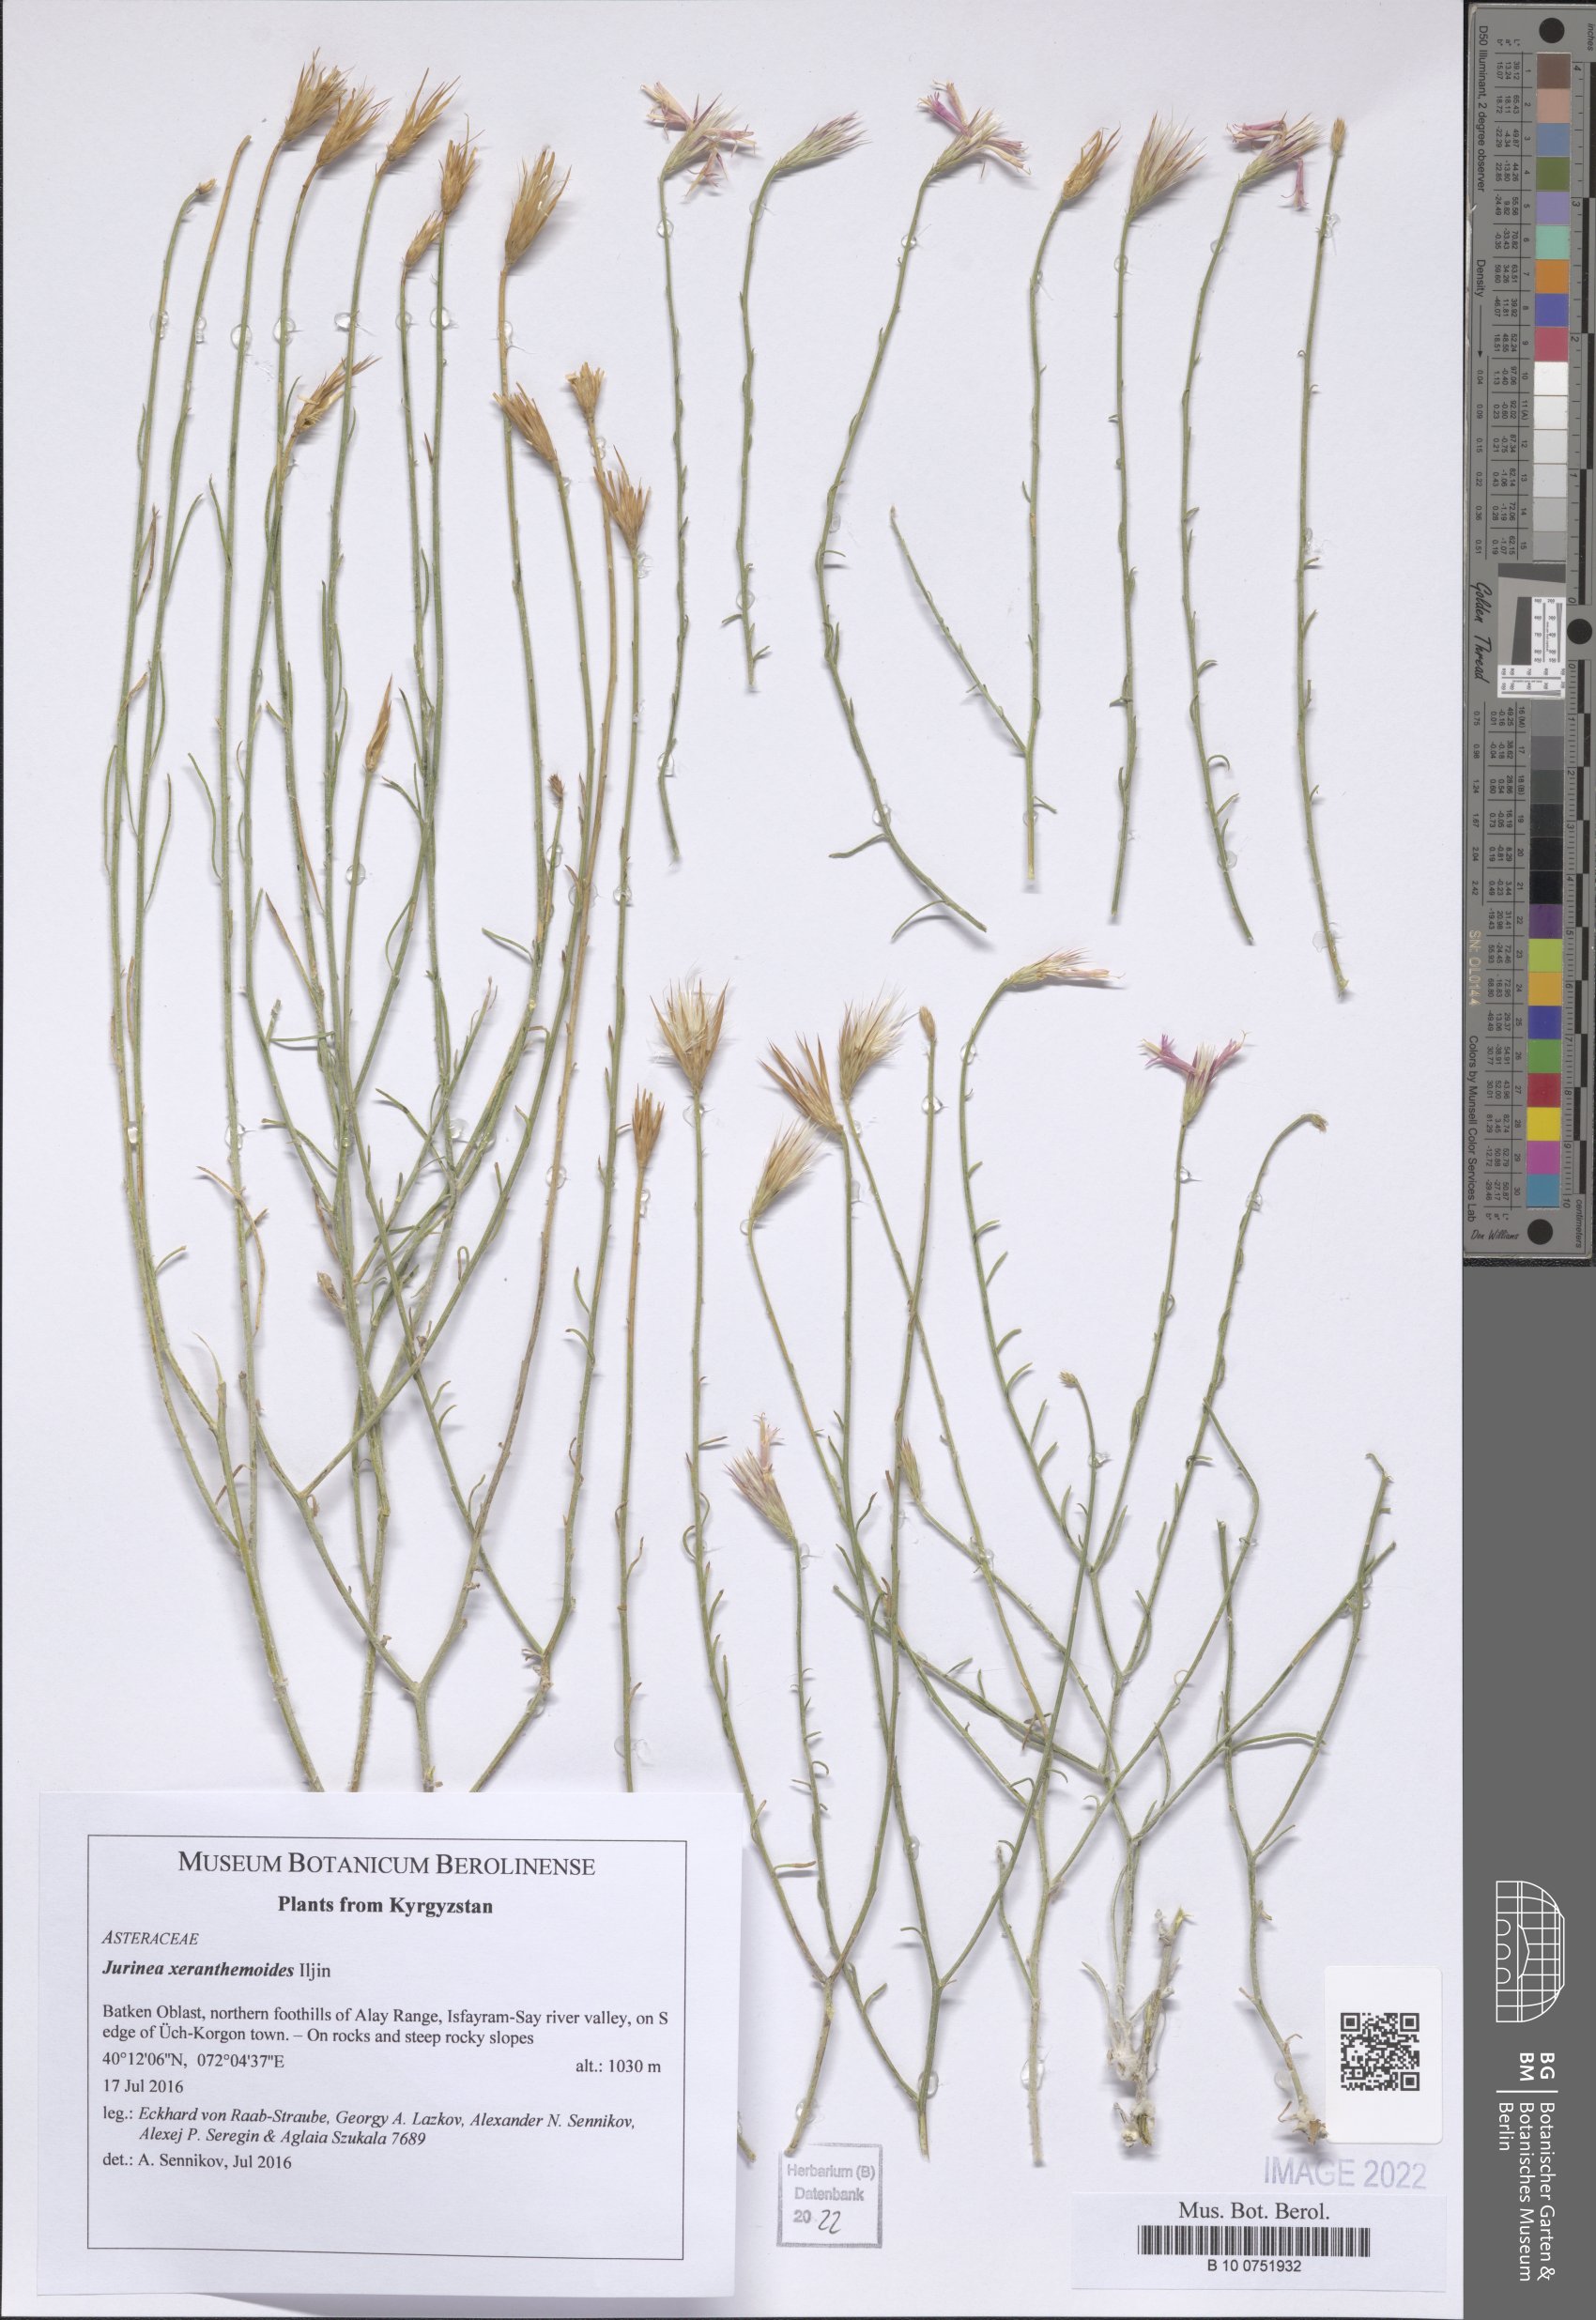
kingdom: Plantae
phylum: Tracheophyta
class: Magnoliopsida
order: Asterales
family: Asteraceae
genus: Jurinea
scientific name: Jurinea xeranthemoides
